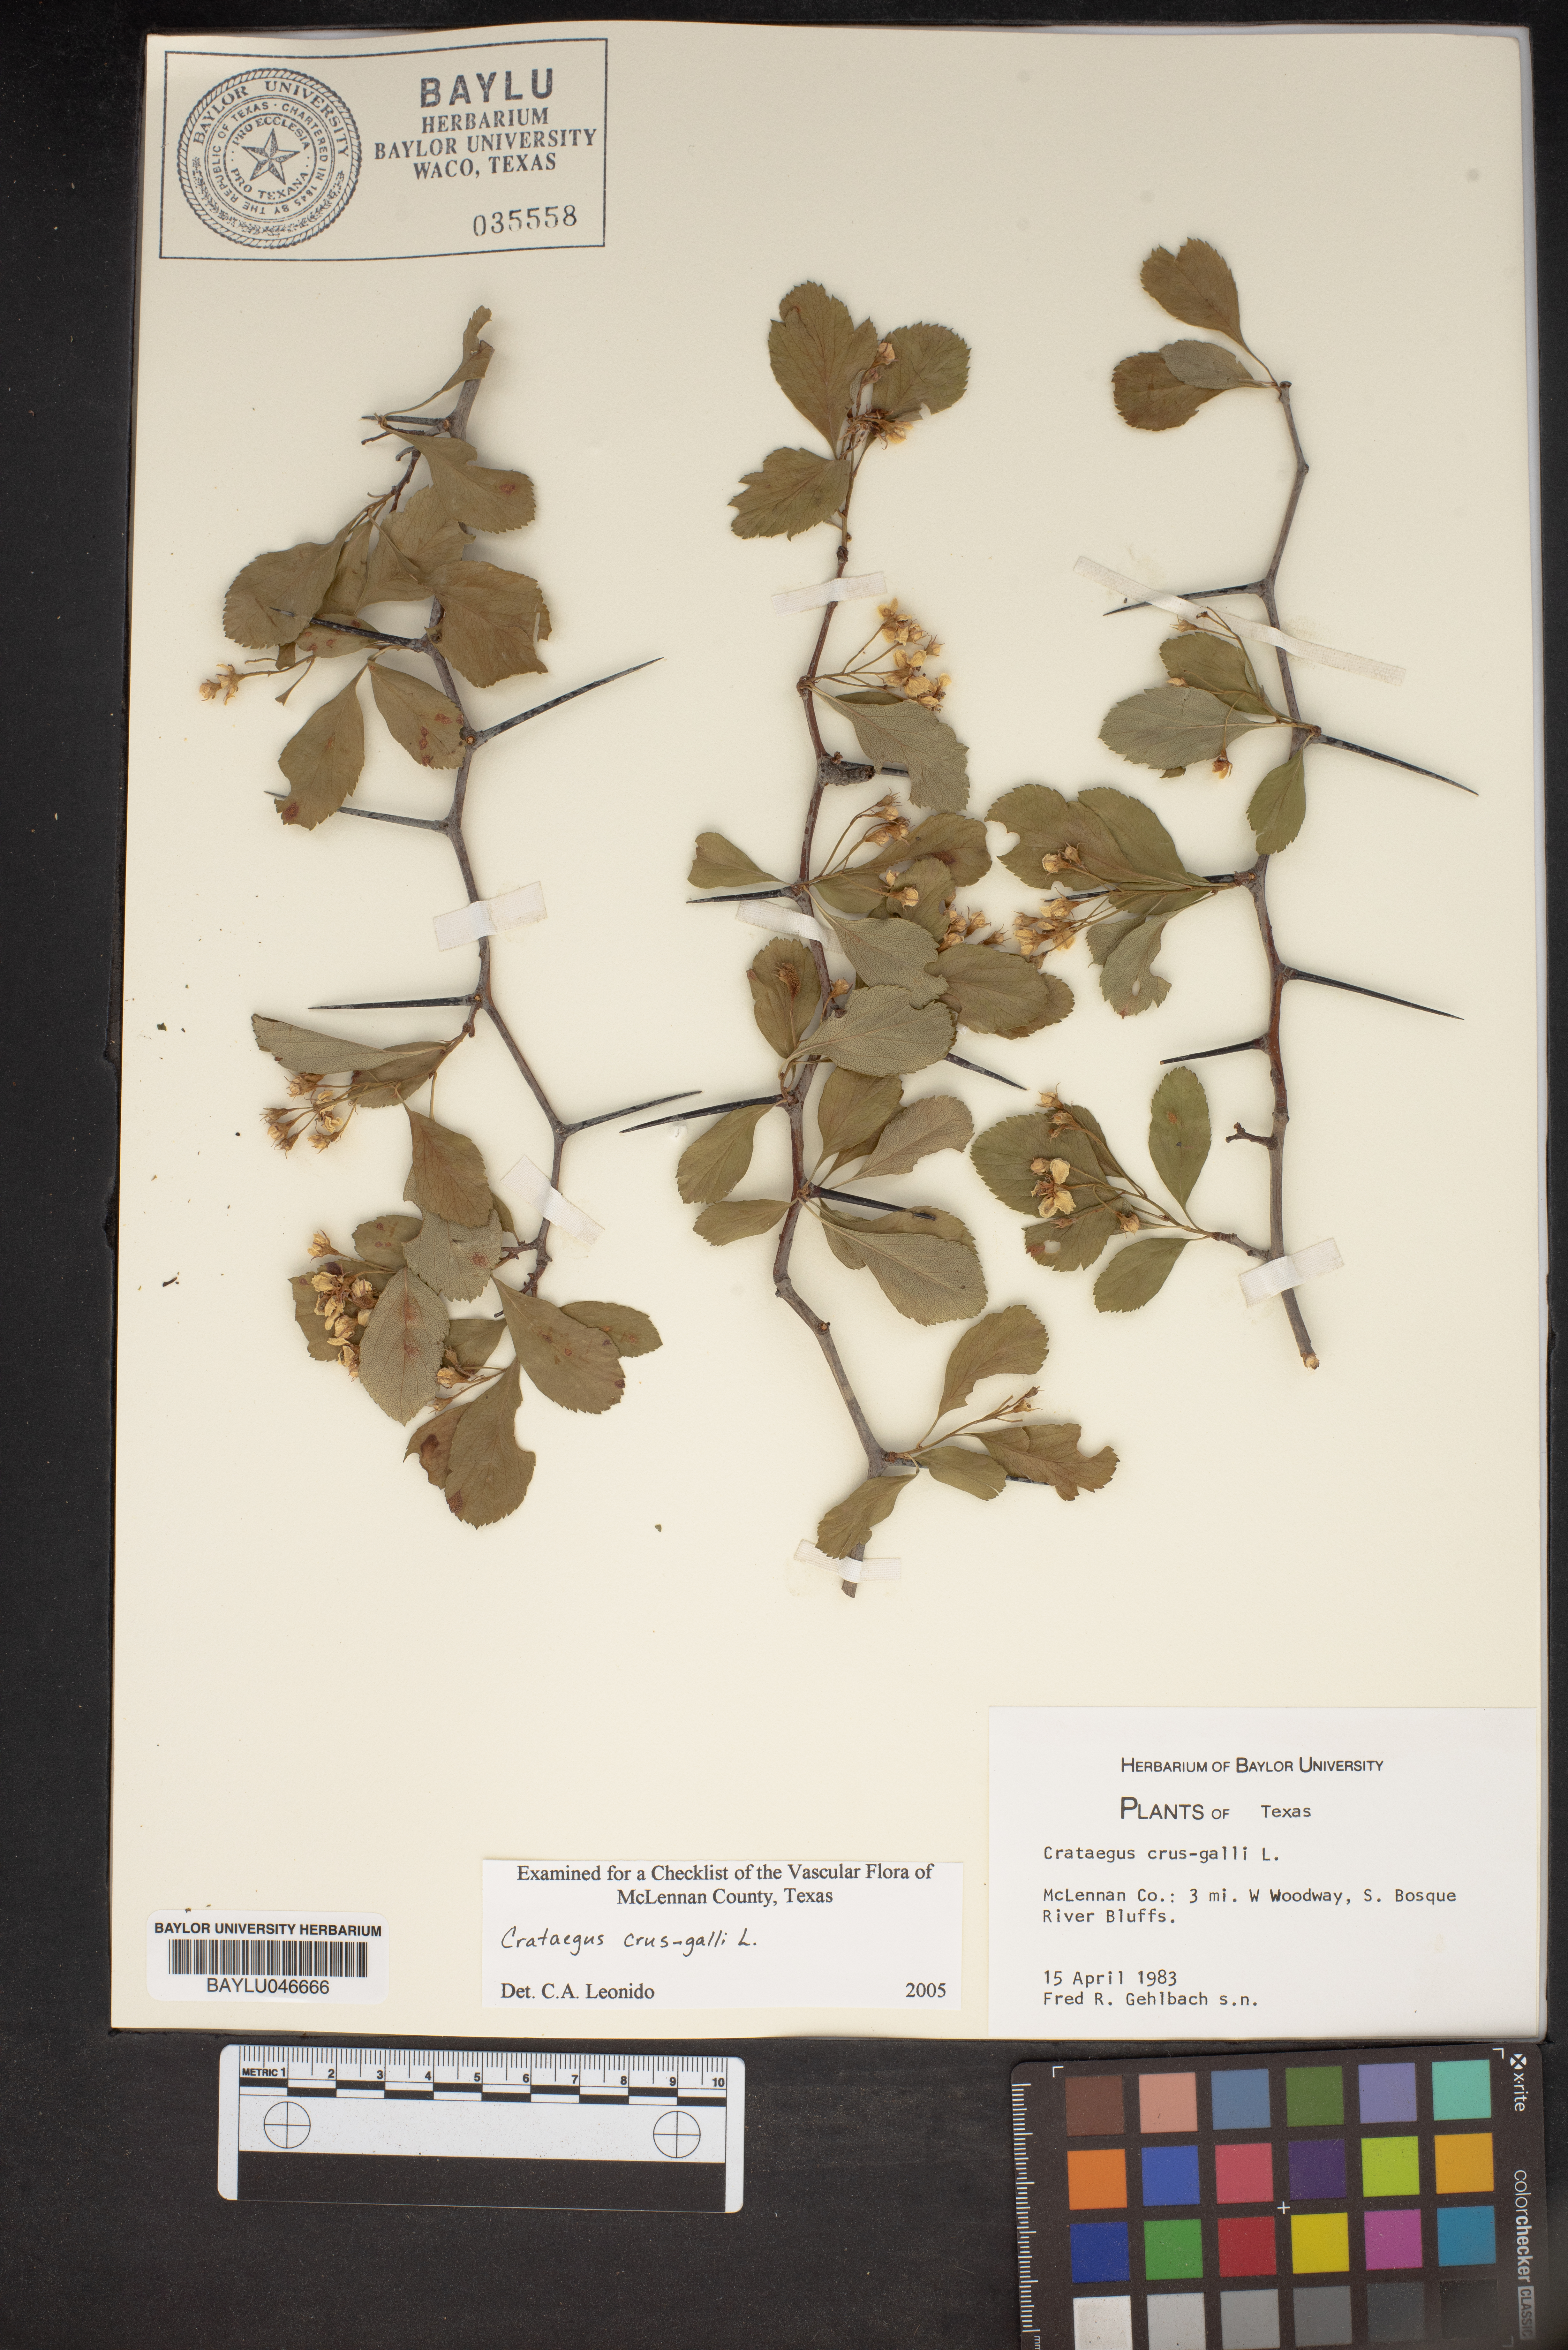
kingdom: Plantae
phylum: Tracheophyta
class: Magnoliopsida
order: Rosales
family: Rosaceae
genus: Crataegus
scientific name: Crataegus crus-galli
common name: Cockspurthorn
